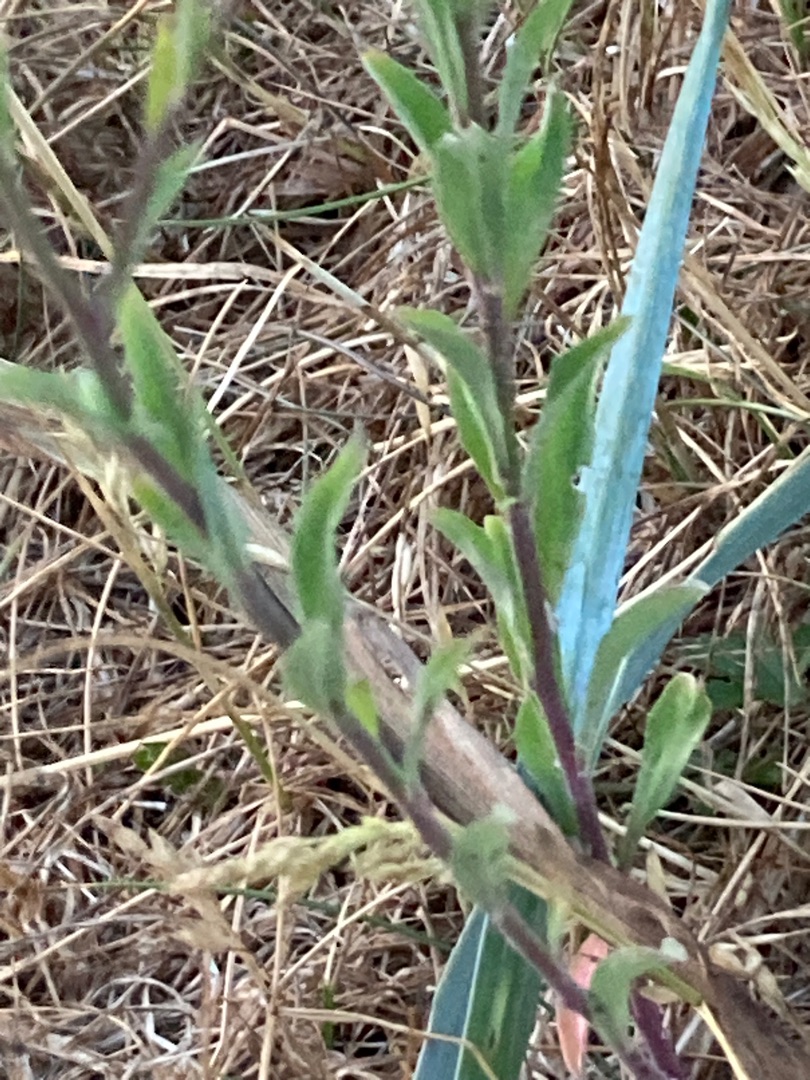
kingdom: Plantae
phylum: Tracheophyta
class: Magnoliopsida
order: Brassicales
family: Brassicaceae
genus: Berteroa
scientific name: Berteroa incana
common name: Kløvplade
